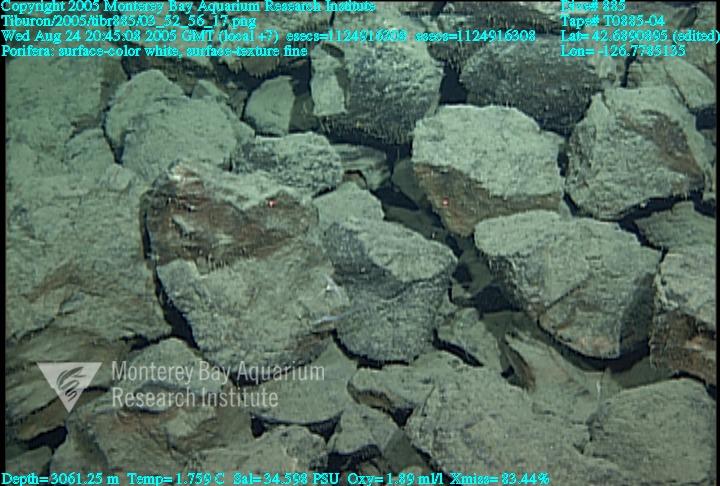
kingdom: Animalia
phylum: Porifera
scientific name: Porifera
